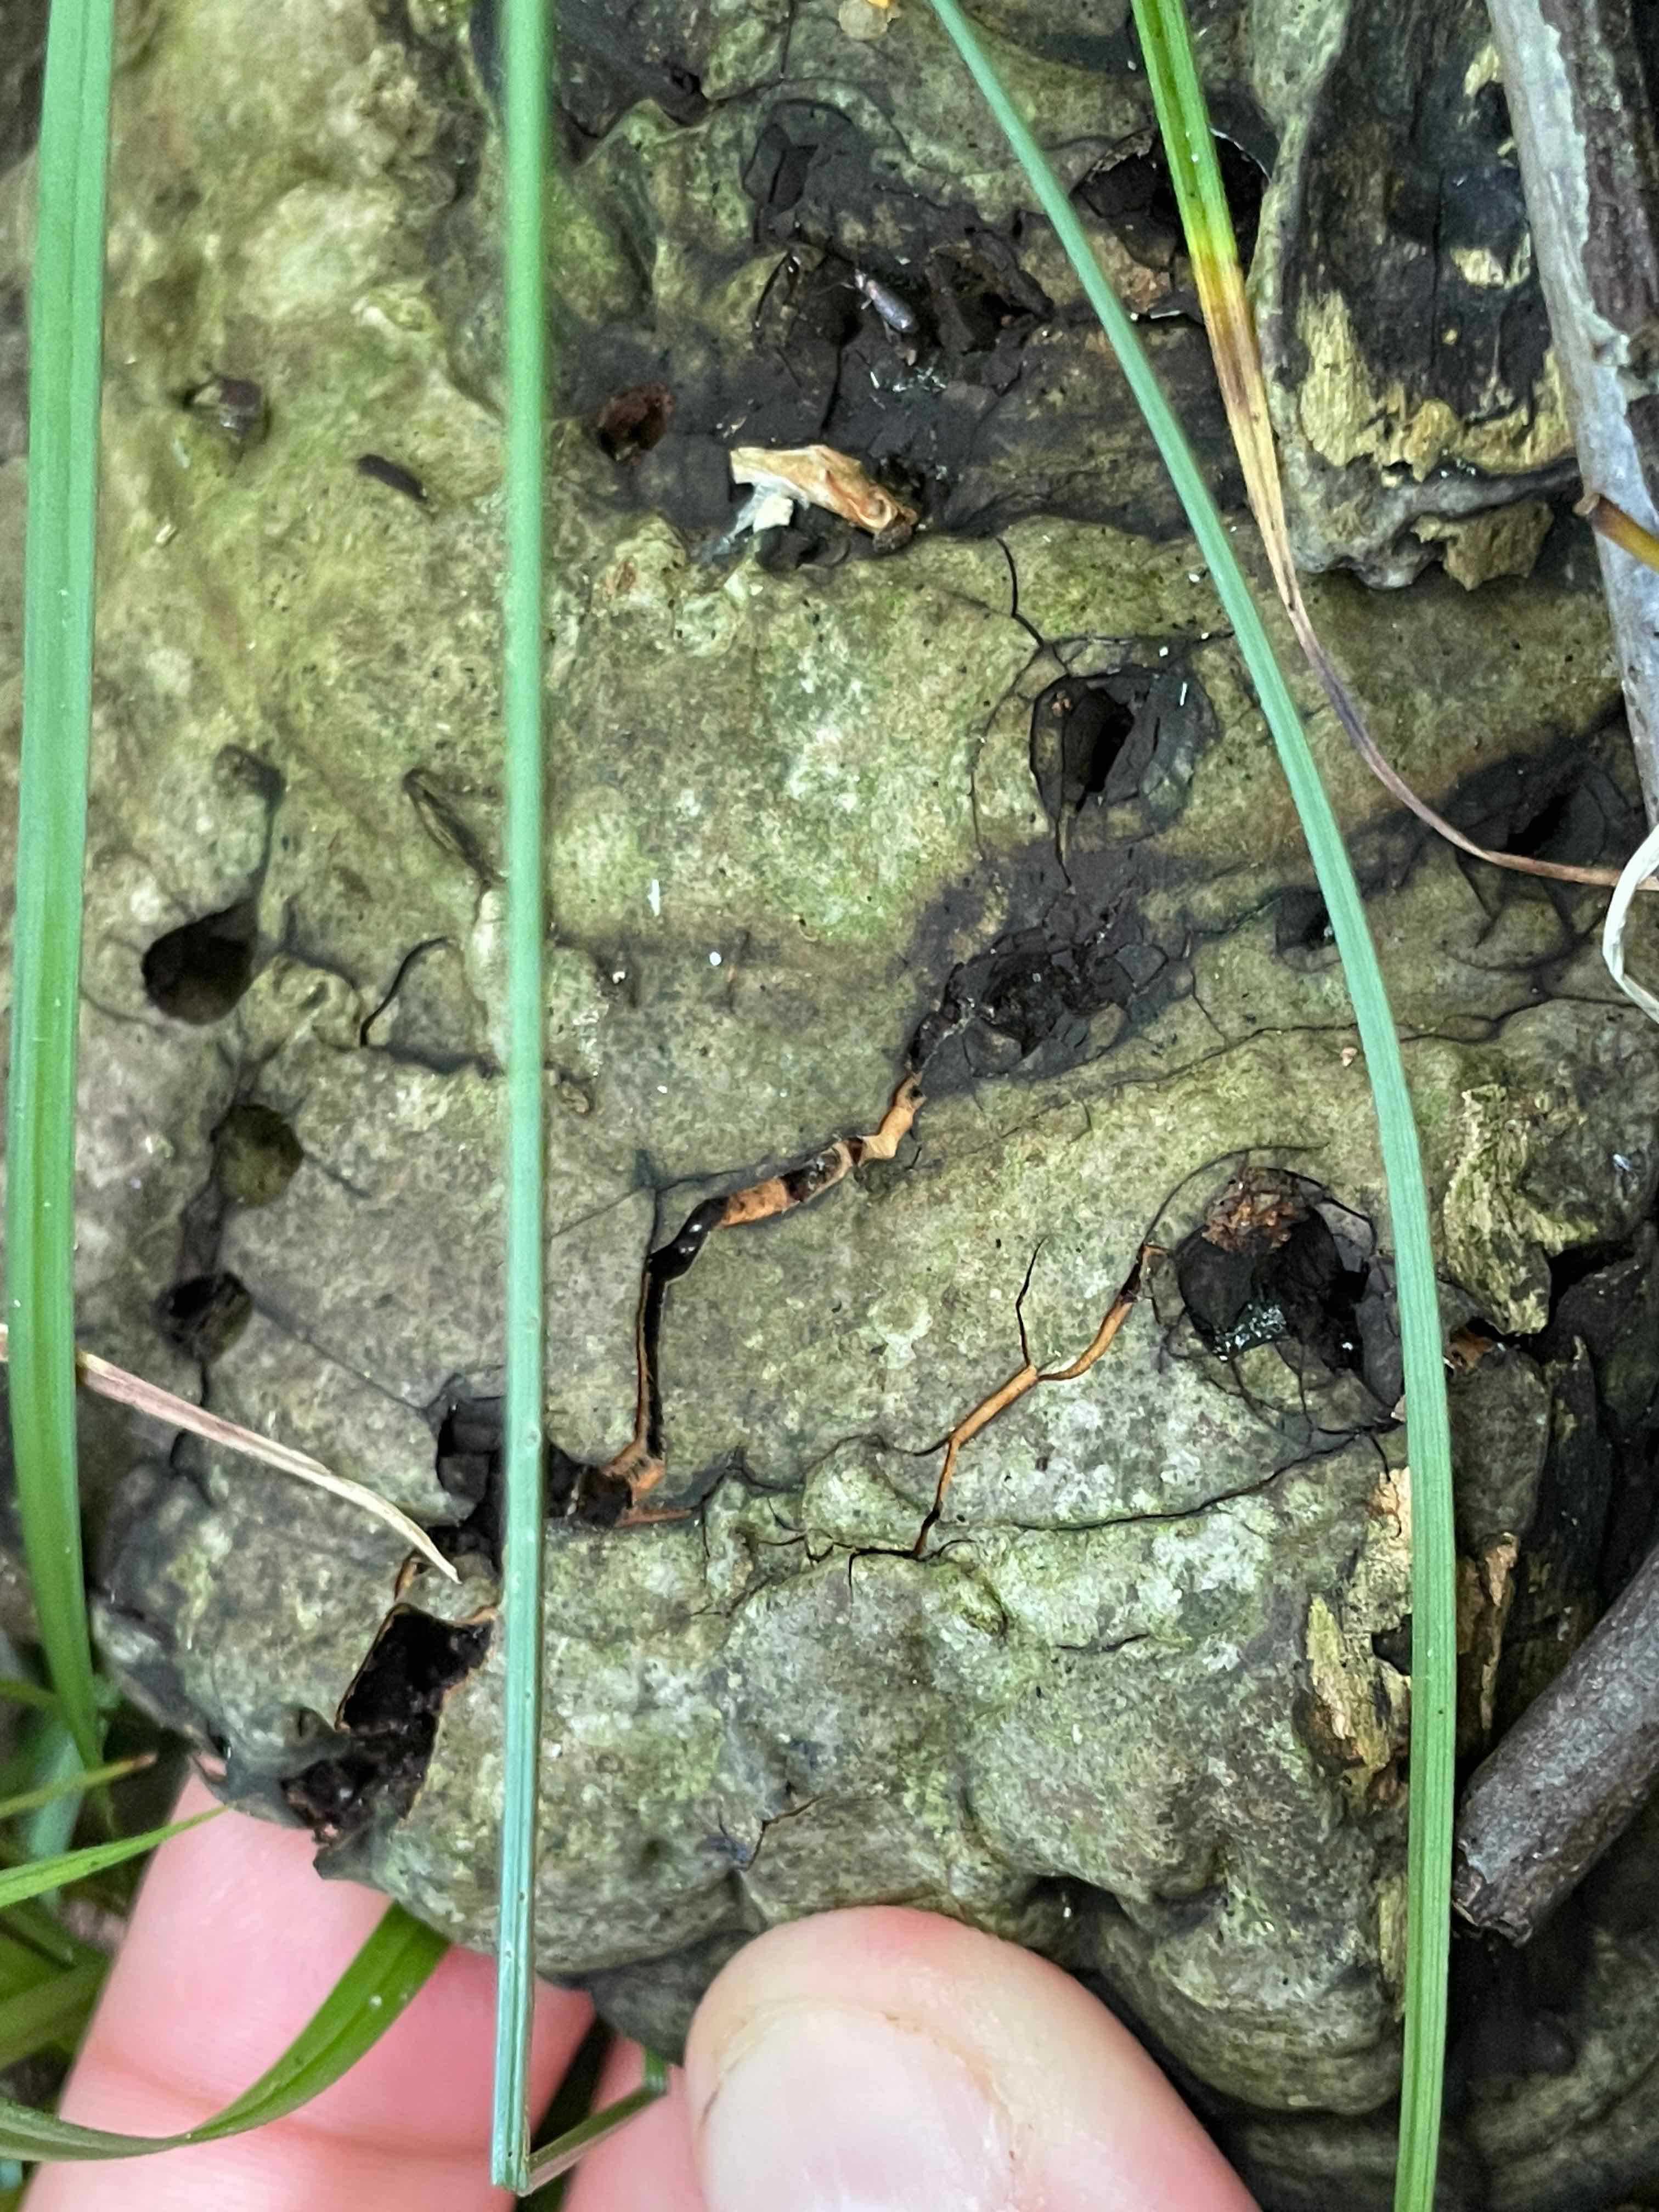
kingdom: Fungi
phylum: Basidiomycota
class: Agaricomycetes
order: Polyporales
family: Polyporaceae
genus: Ganoderma
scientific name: Ganoderma applanatum
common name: flad lakporesvamp
